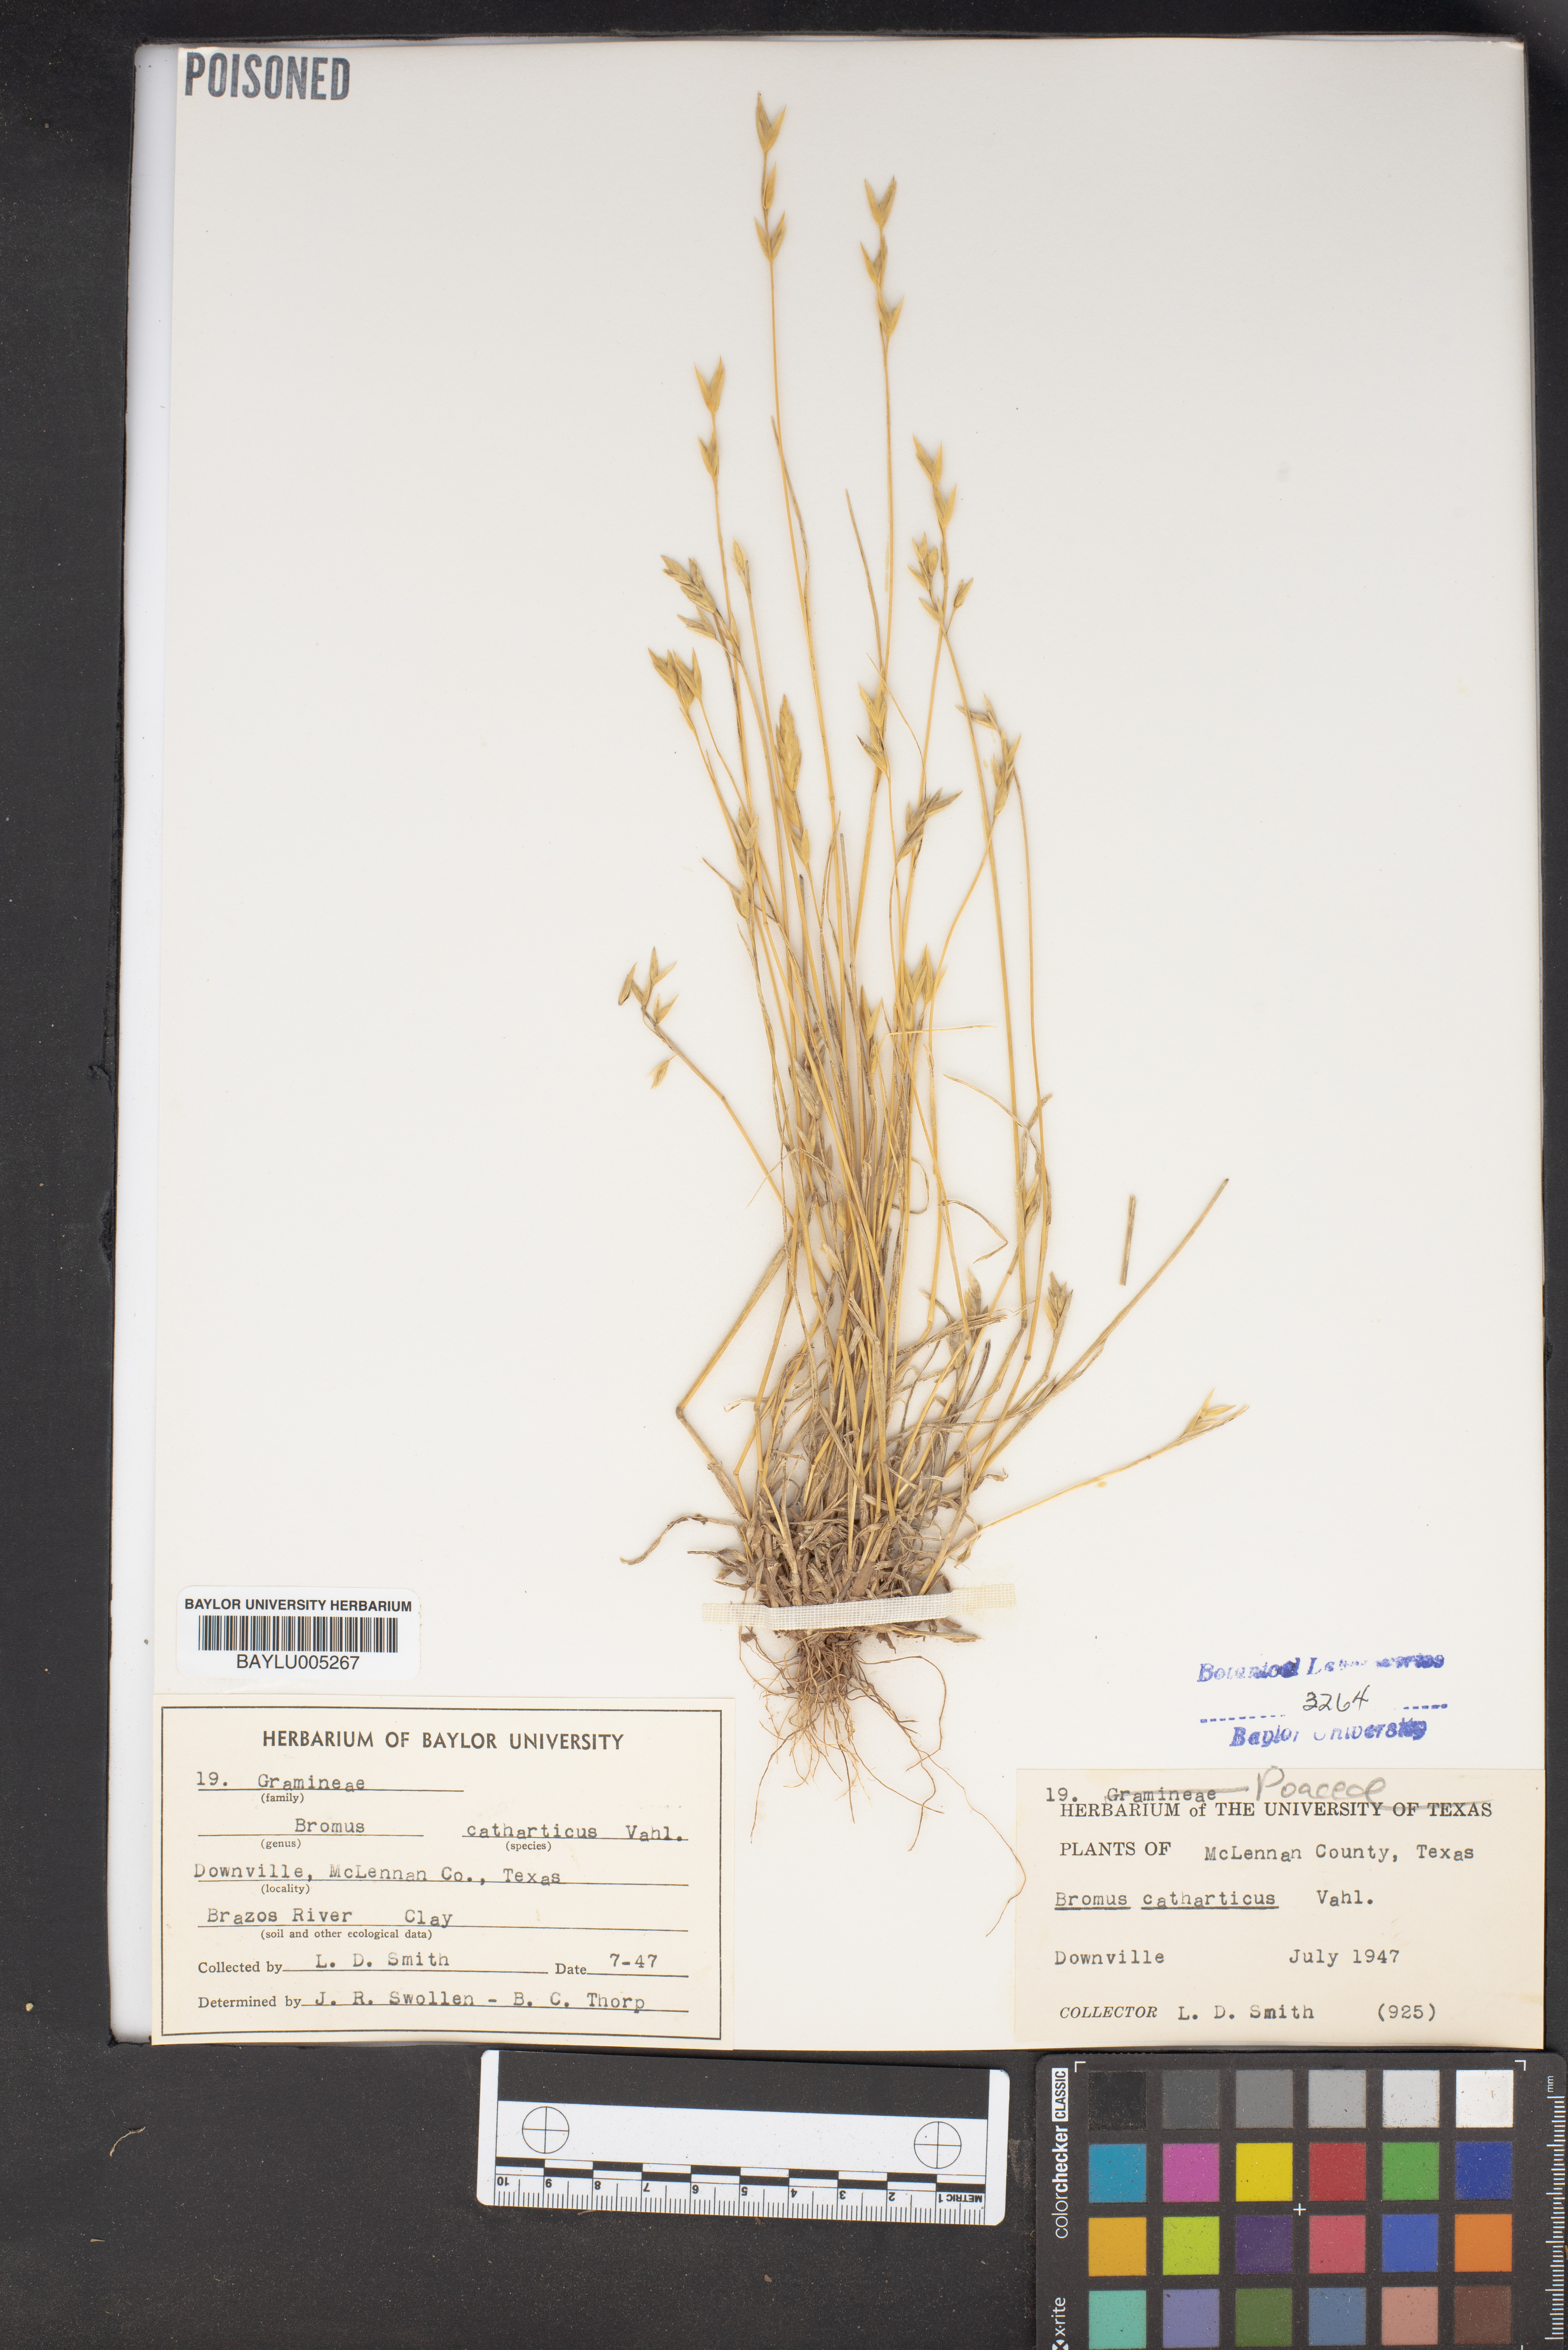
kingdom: Plantae
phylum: Tracheophyta
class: Liliopsida
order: Poales
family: Poaceae
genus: Bromus
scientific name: Bromus catharticus
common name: Rescuegrass
